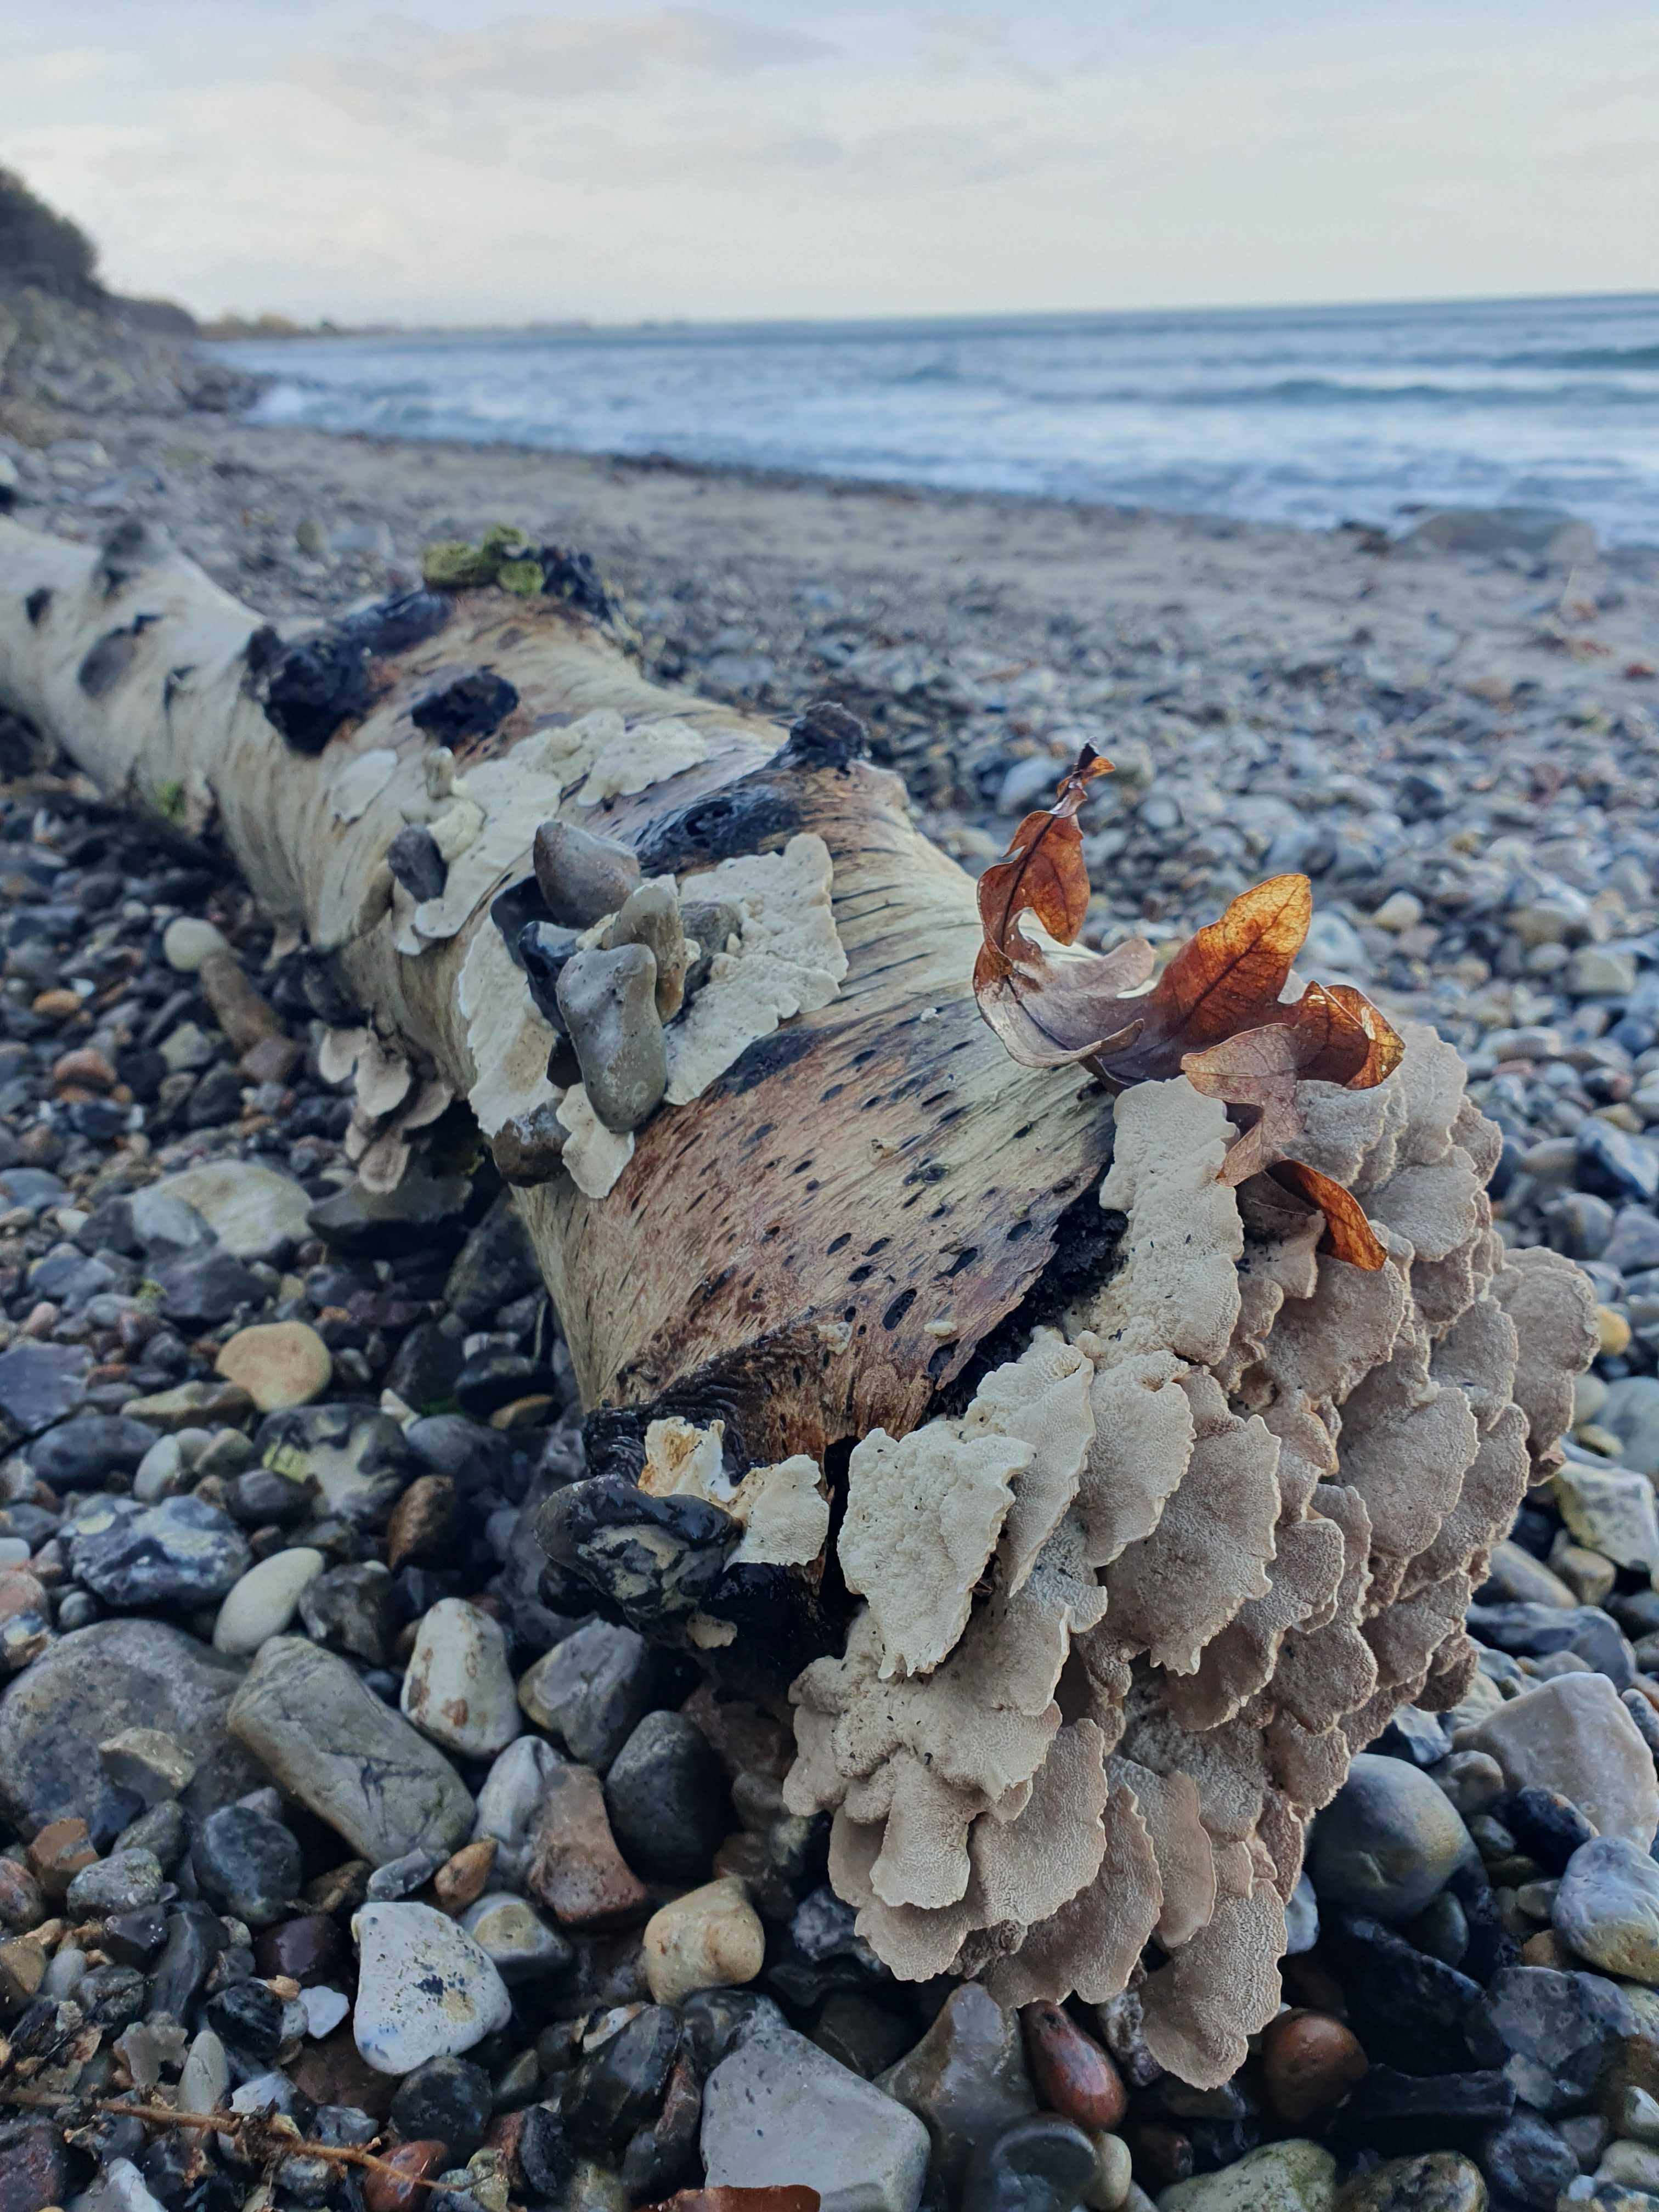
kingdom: Fungi
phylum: Basidiomycota
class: Agaricomycetes
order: Polyporales
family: Polyporaceae
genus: Trametes
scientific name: Trametes ochracea
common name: bæltet læderporesvamp
